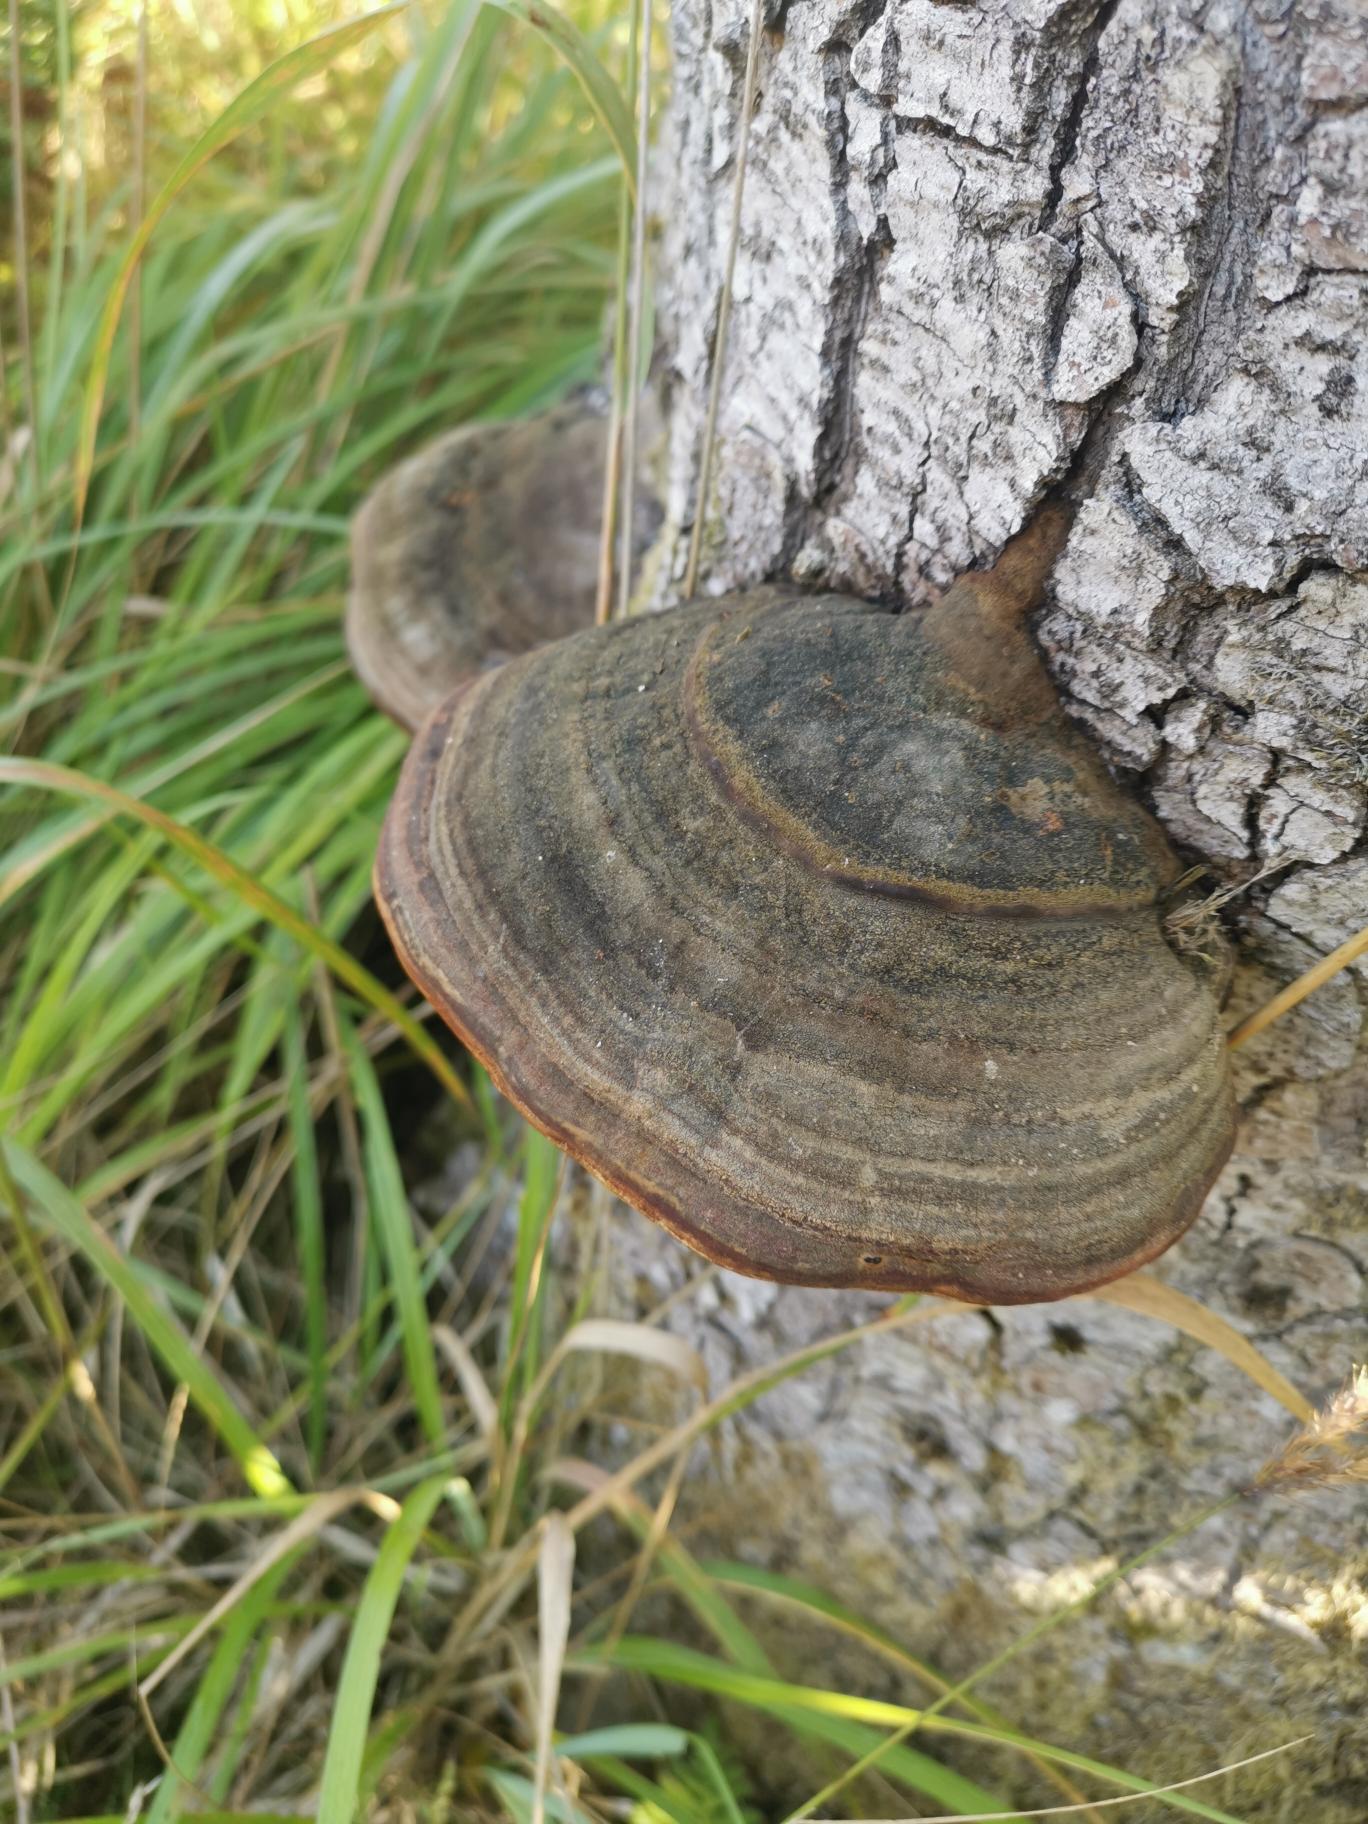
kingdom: Fungi
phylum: Basidiomycota
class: Agaricomycetes
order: Polyporales
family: Fomitopsidaceae
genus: Fomitopsis
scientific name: Fomitopsis pinicola
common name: Randbæltet hovporesvamp
